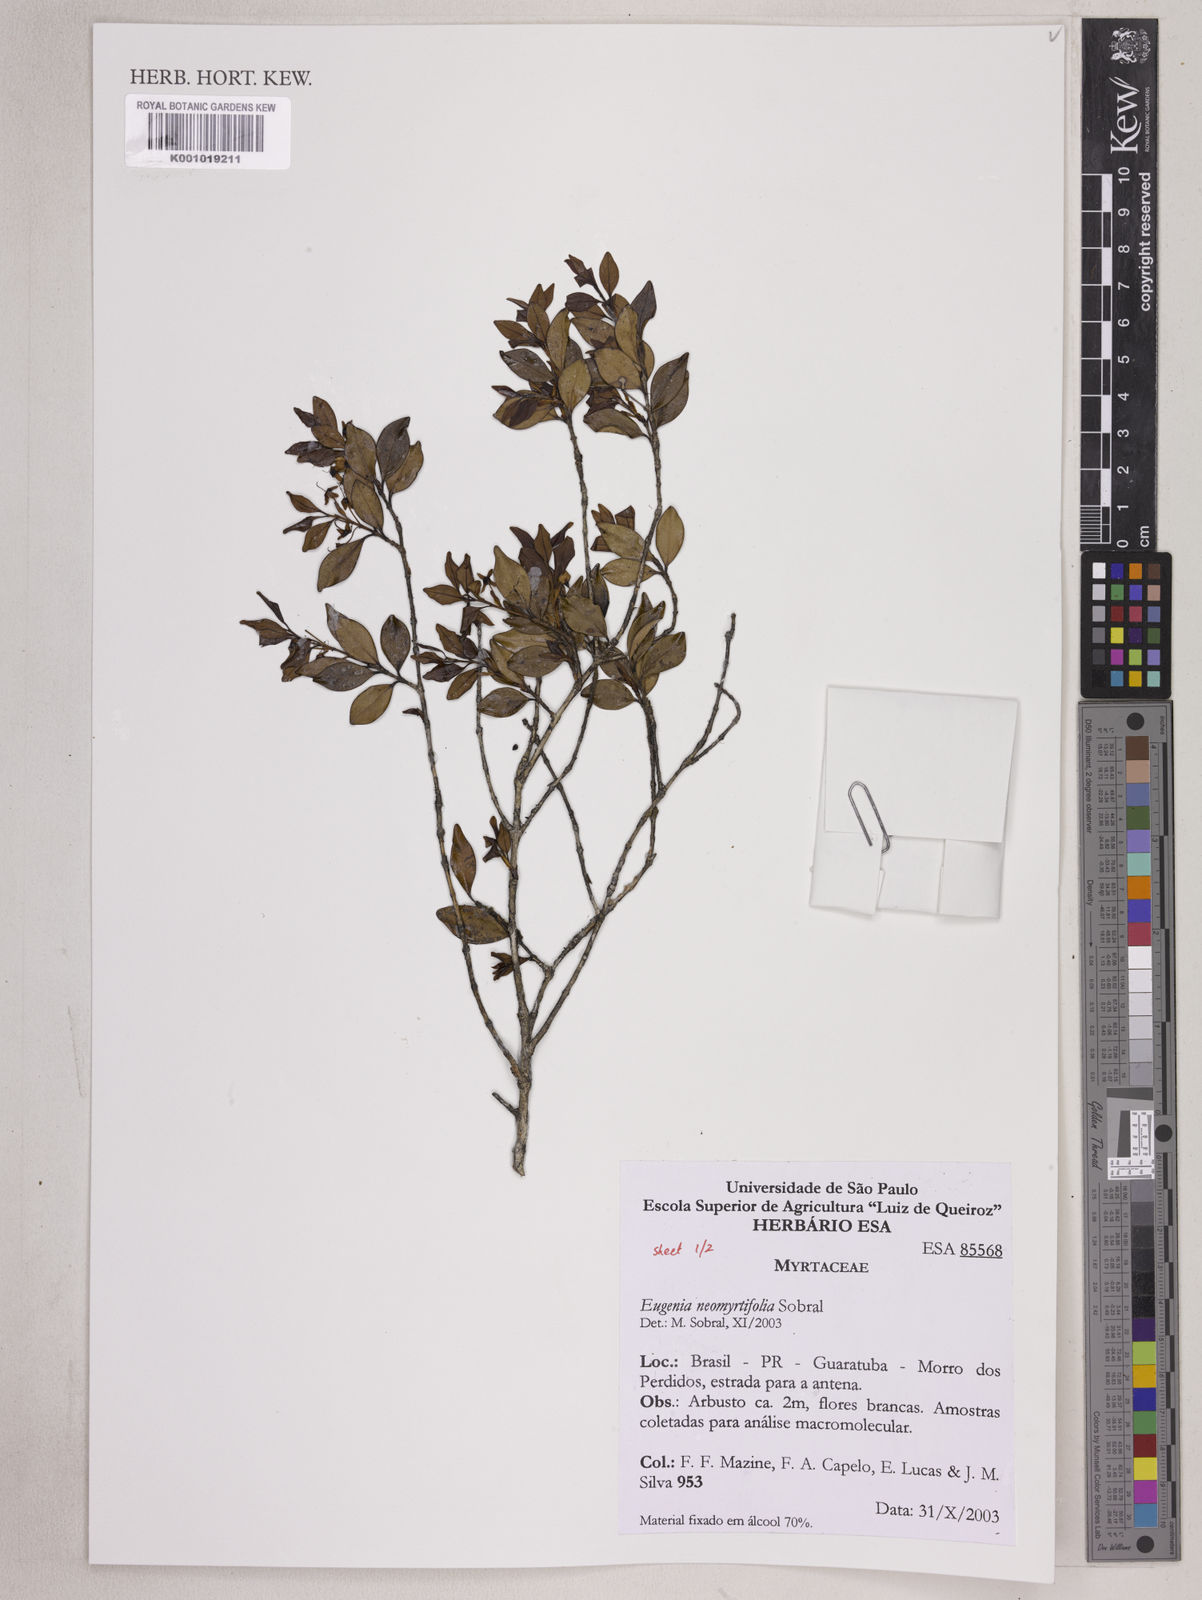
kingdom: Plantae
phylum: Tracheophyta
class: Magnoliopsida
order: Myrtales
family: Myrtaceae
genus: Eugenia
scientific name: Eugenia neomyrtifolia
